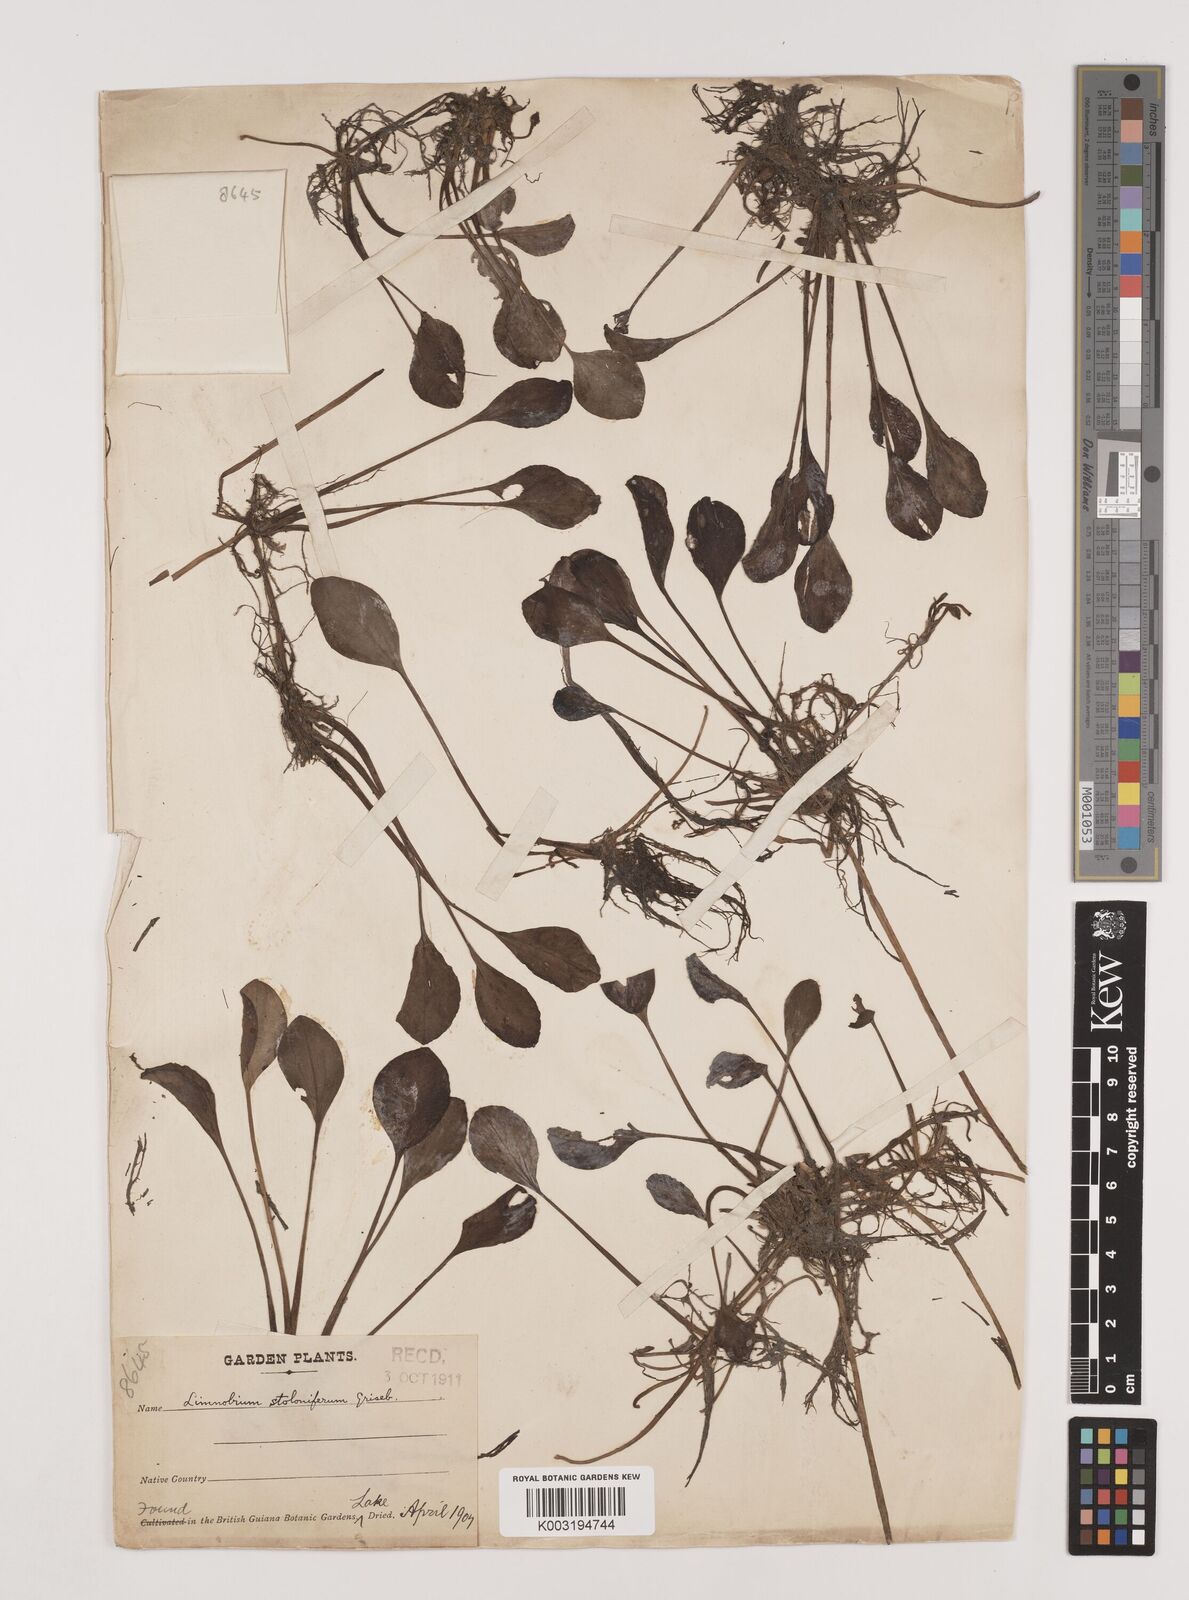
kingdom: Plantae
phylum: Tracheophyta
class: Liliopsida
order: Alismatales
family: Hydrocharitaceae
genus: Hydrocharis
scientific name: Hydrocharis laevigata
